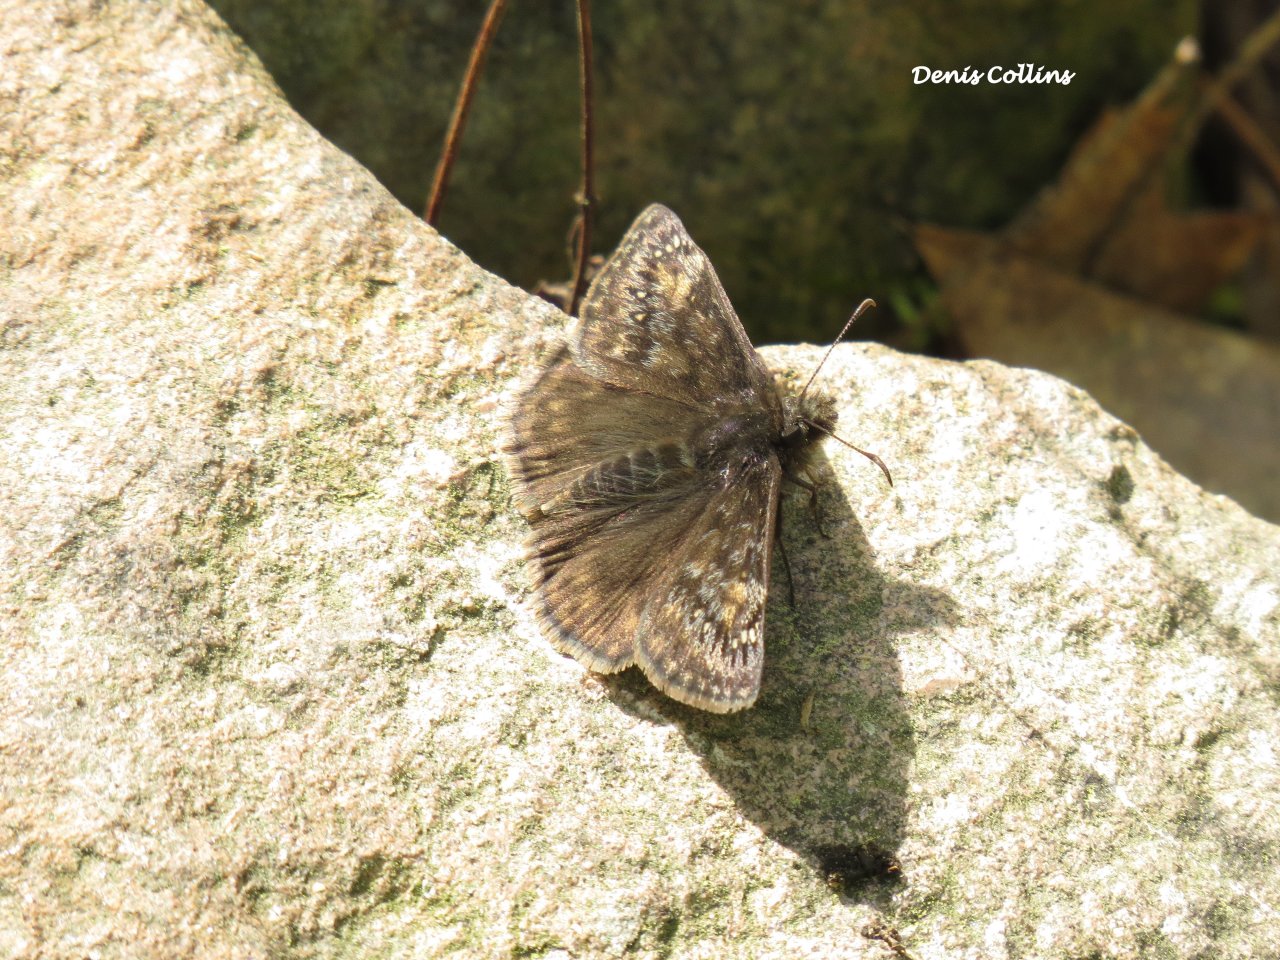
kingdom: Animalia
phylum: Arthropoda
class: Insecta
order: Lepidoptera
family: Hesperiidae
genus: Gesta
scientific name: Gesta
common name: Juvenal's Duskywing
